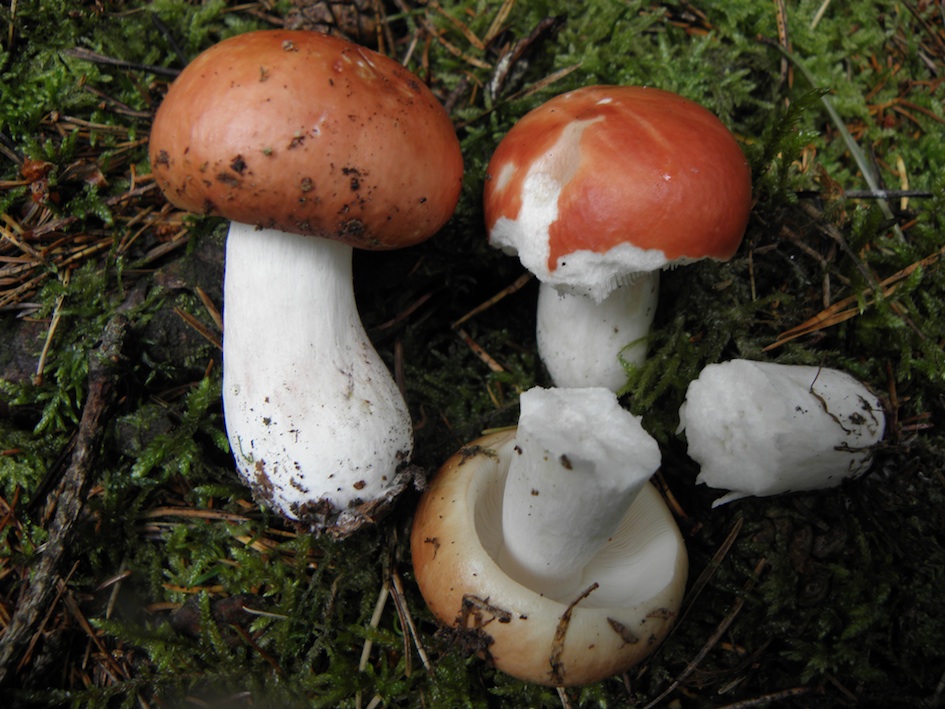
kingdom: Fungi
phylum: Basidiomycota
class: Agaricomycetes
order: Russulales
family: Russulaceae
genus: Russula
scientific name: Russula paludosa
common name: prægtig skørhat
